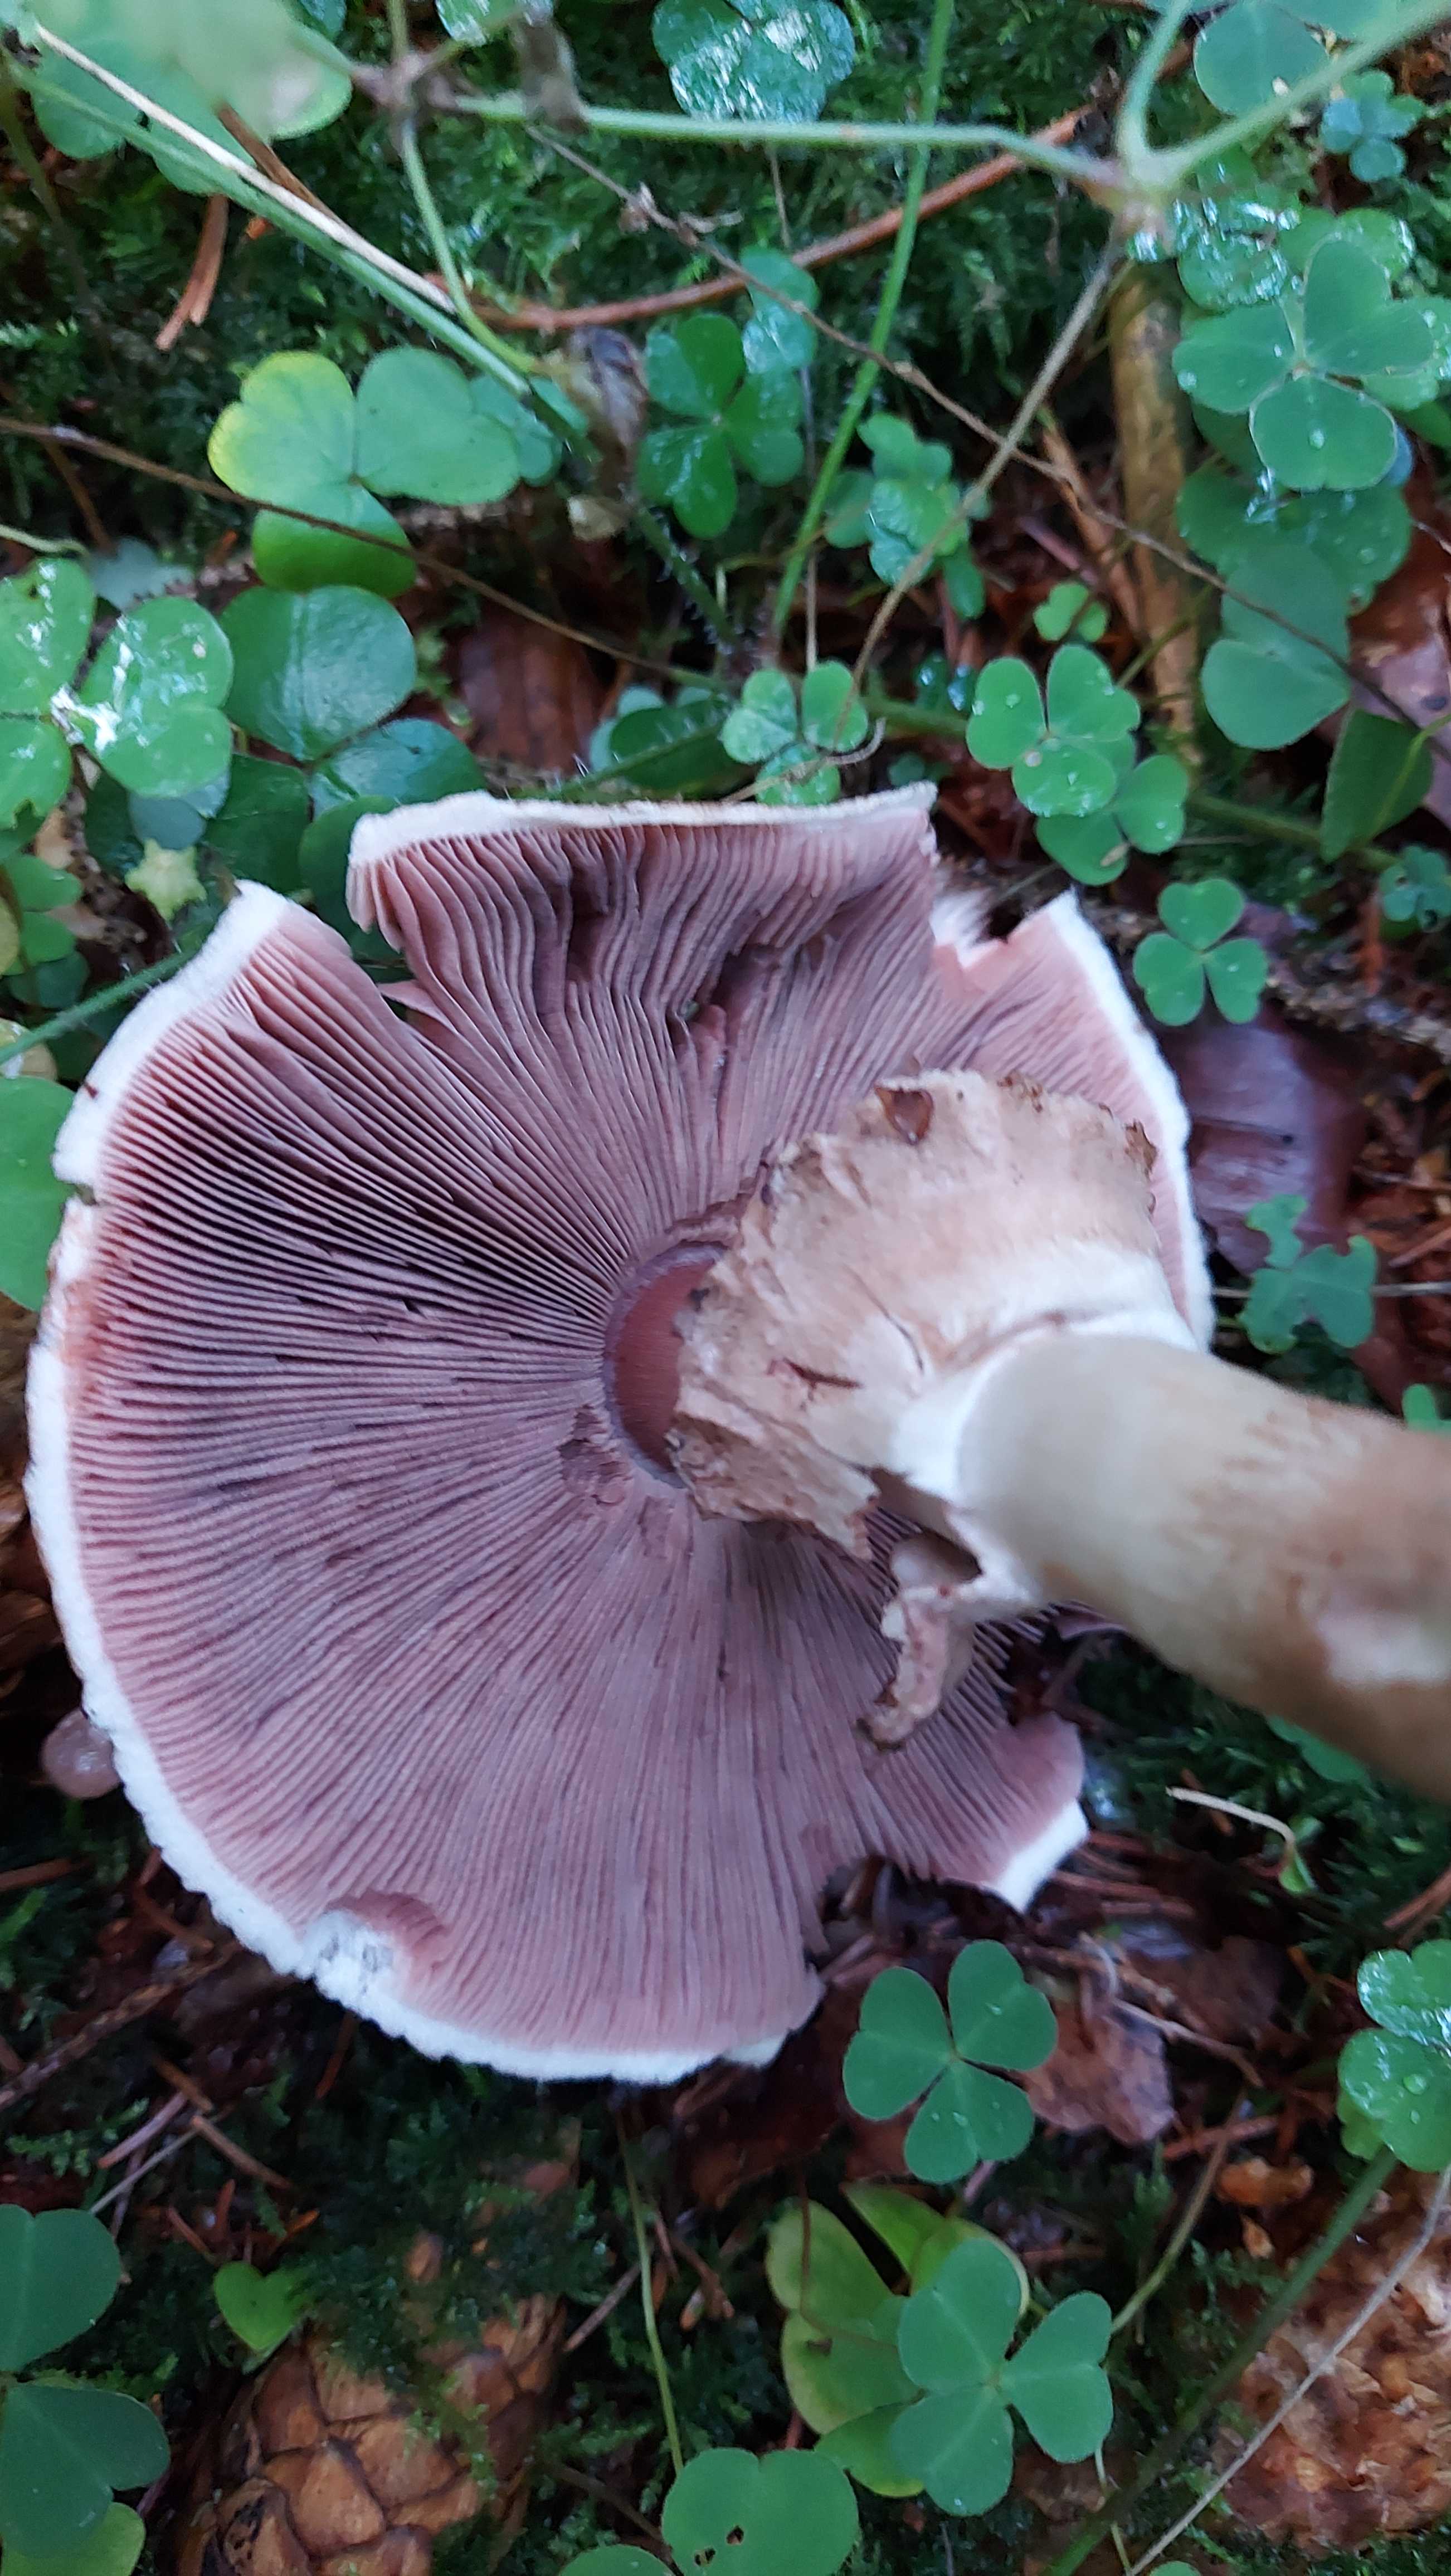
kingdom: Fungi
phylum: Basidiomycota
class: Agaricomycetes
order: Agaricales
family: Agaricaceae
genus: Agaricus
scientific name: Agaricus
